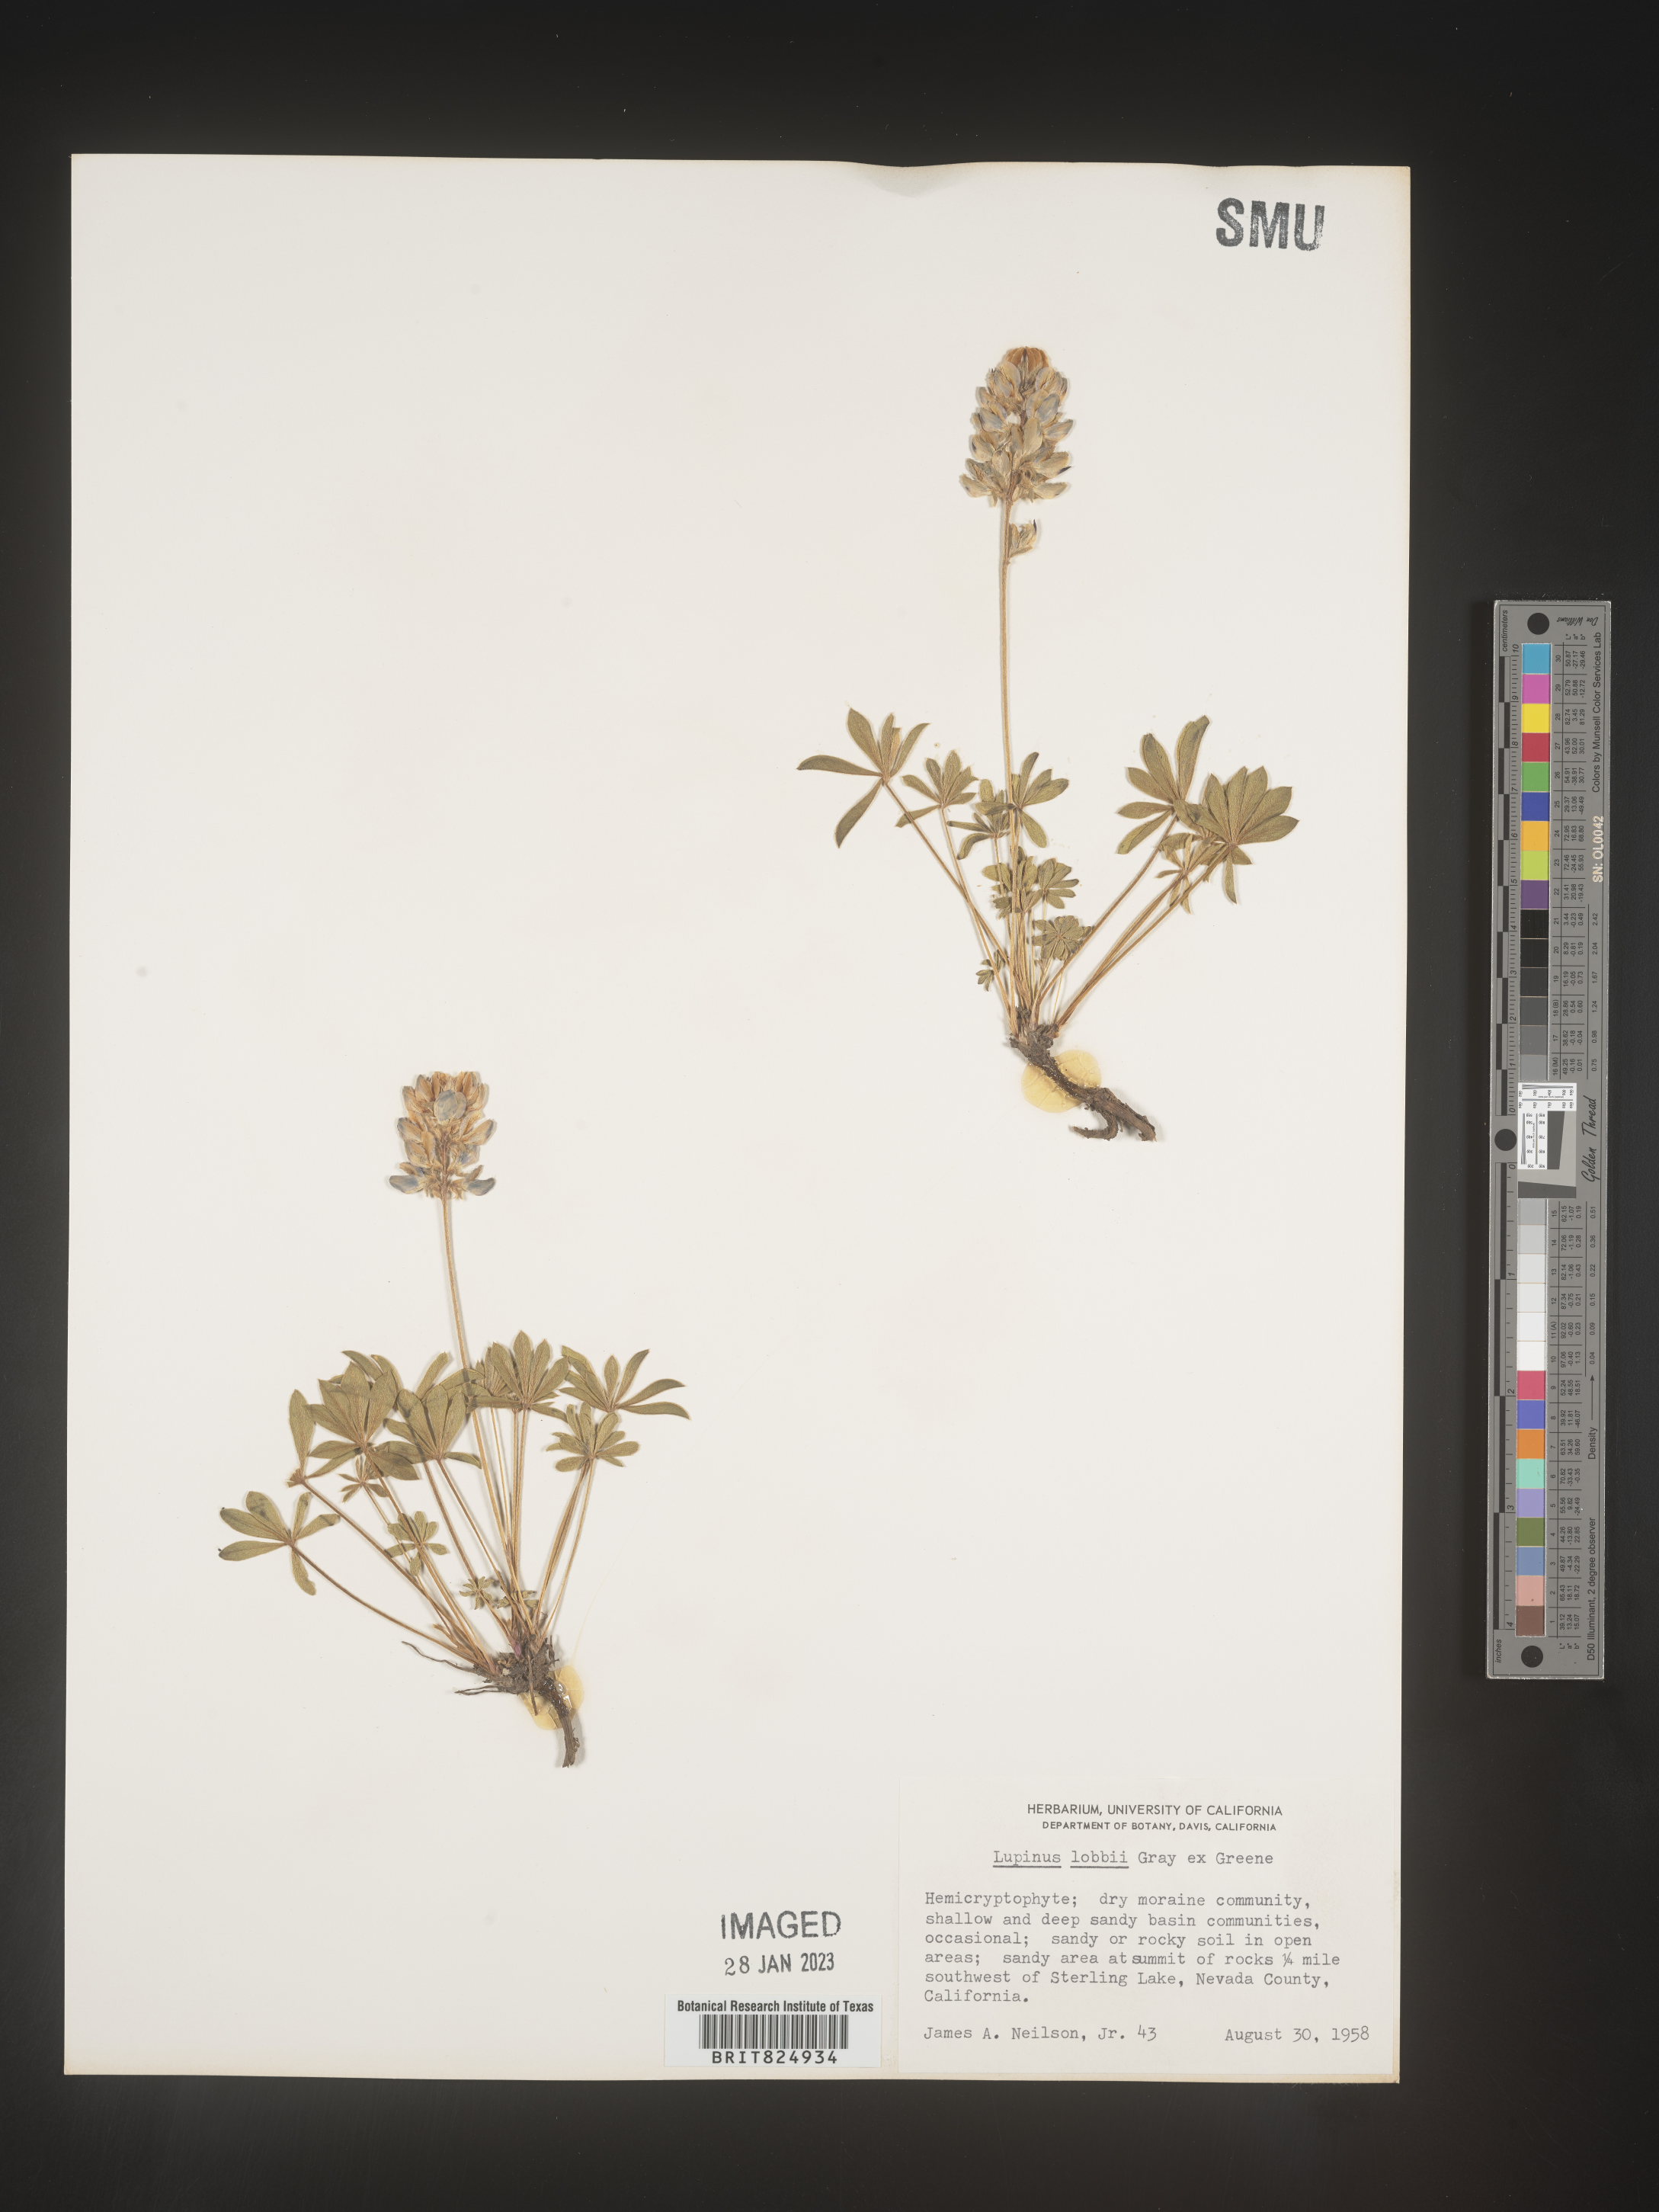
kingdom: Plantae
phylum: Tracheophyta
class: Magnoliopsida
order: Fabales
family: Fabaceae
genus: Lupinus
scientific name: Lupinus
